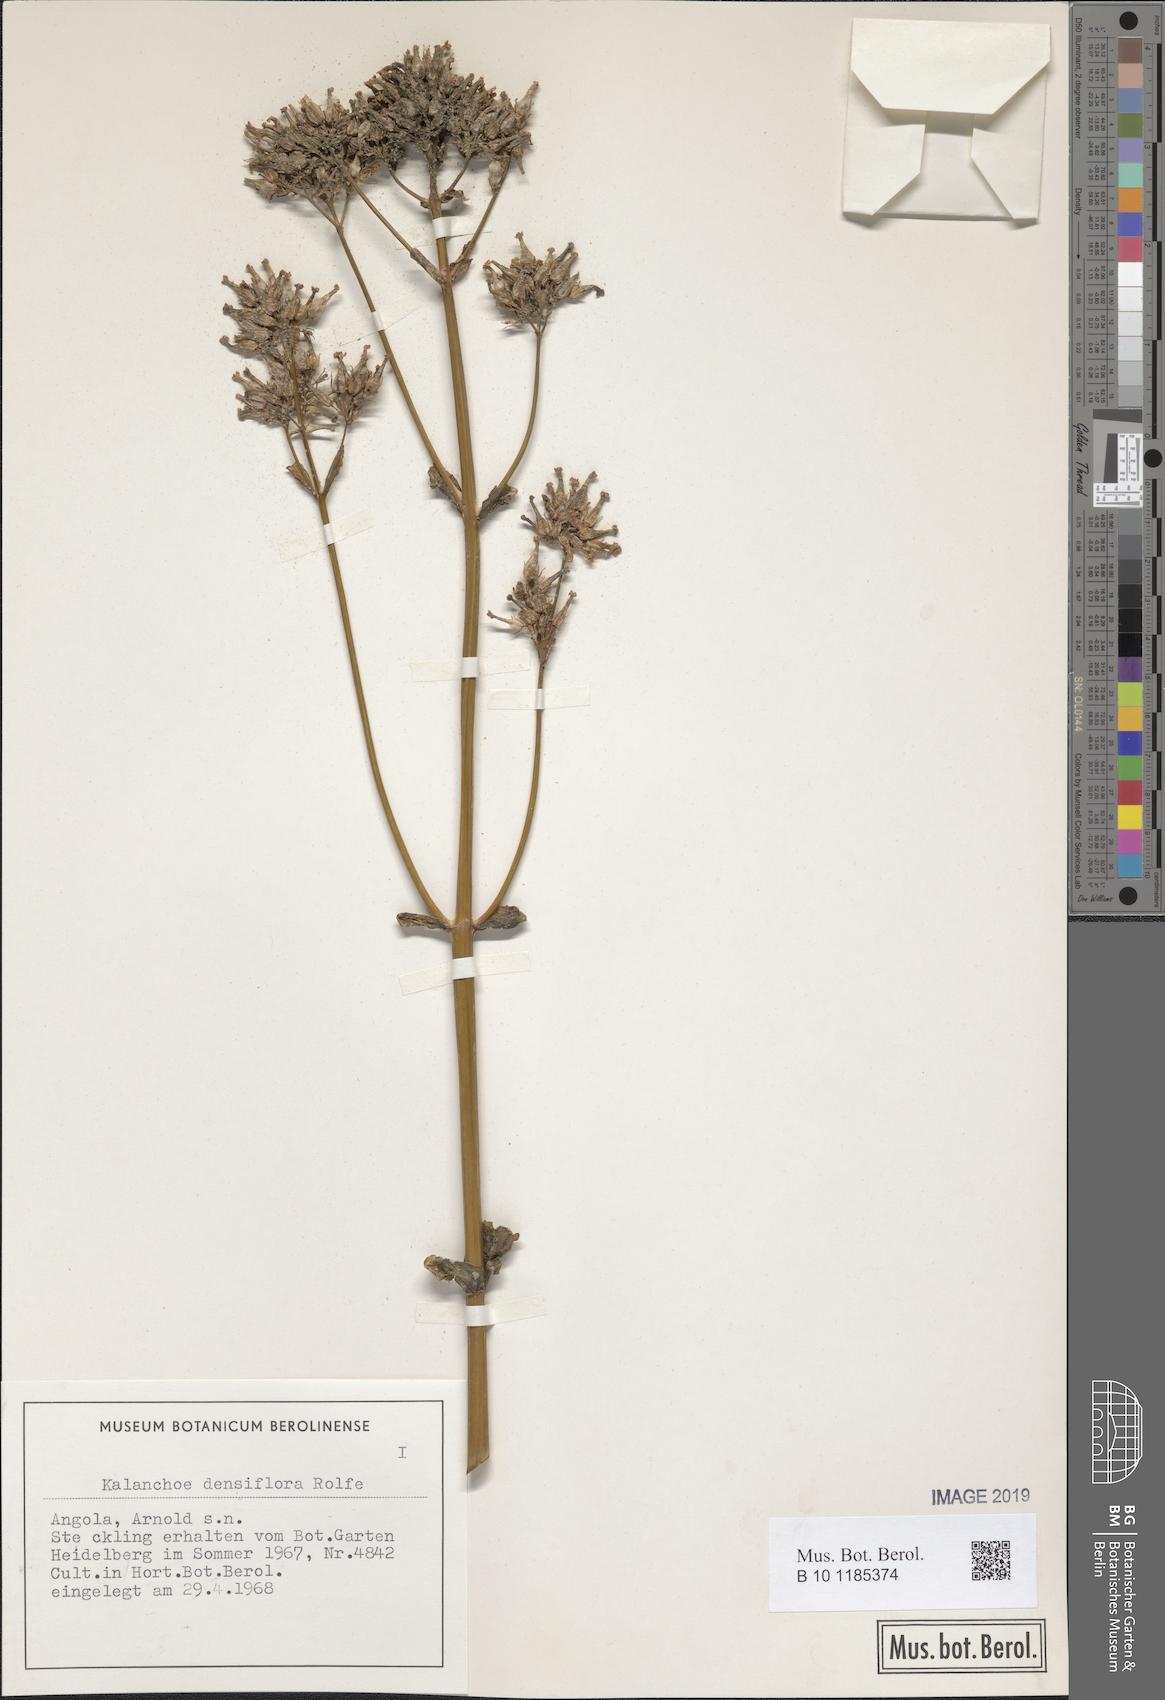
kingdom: Plantae
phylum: Tracheophyta
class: Magnoliopsida
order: Saxifragales
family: Crassulaceae
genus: Kalanchoe
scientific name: Kalanchoe densiflora
